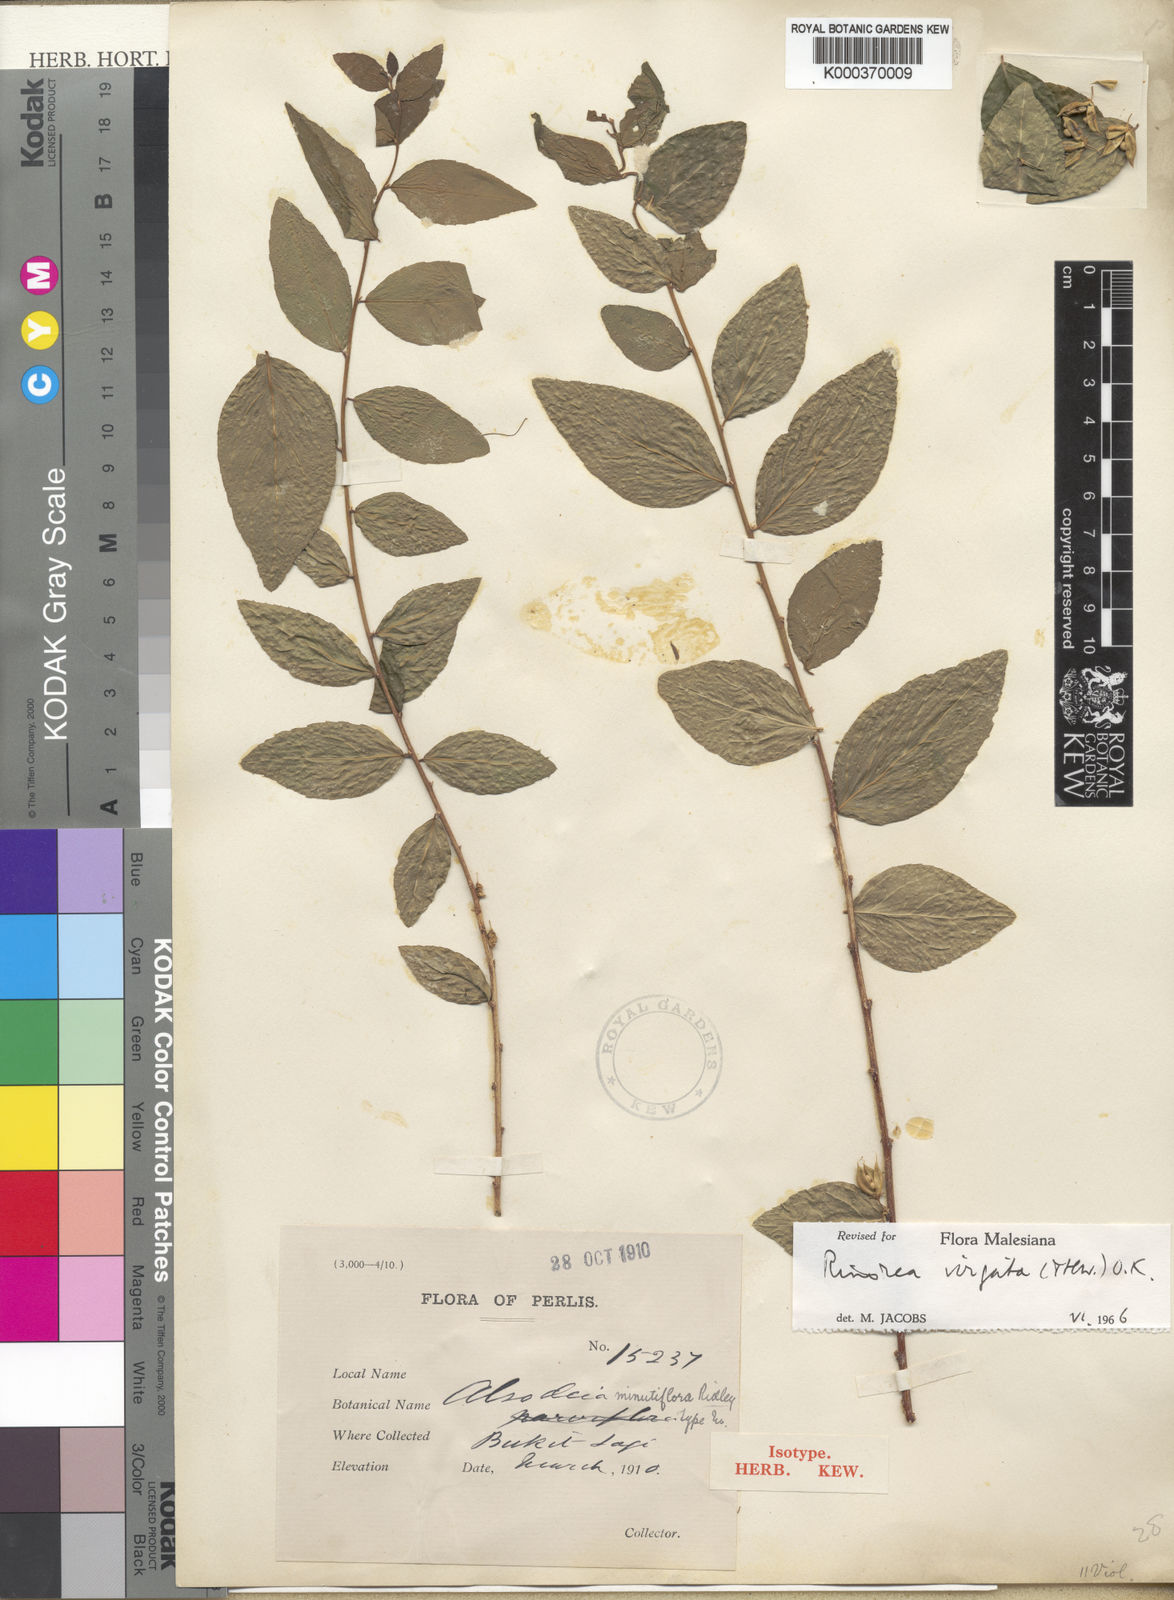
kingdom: Plantae
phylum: Tracheophyta
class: Magnoliopsida
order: Malpighiales
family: Violaceae
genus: Scyphellandra
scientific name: Scyphellandra virgata
